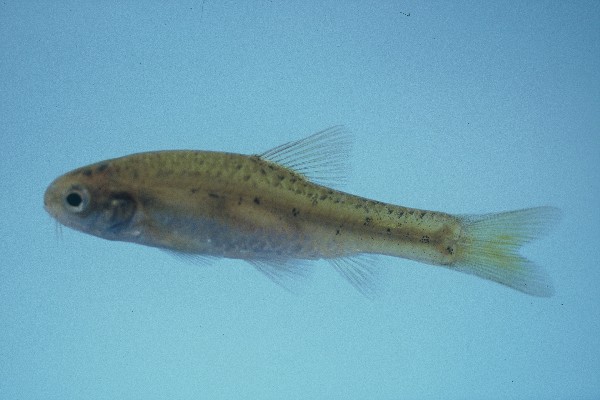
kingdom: Animalia
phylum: Chordata
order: Cypriniformes
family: Cyprinidae
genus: Enteromius
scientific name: Enteromius pallidus
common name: Goldie barb
